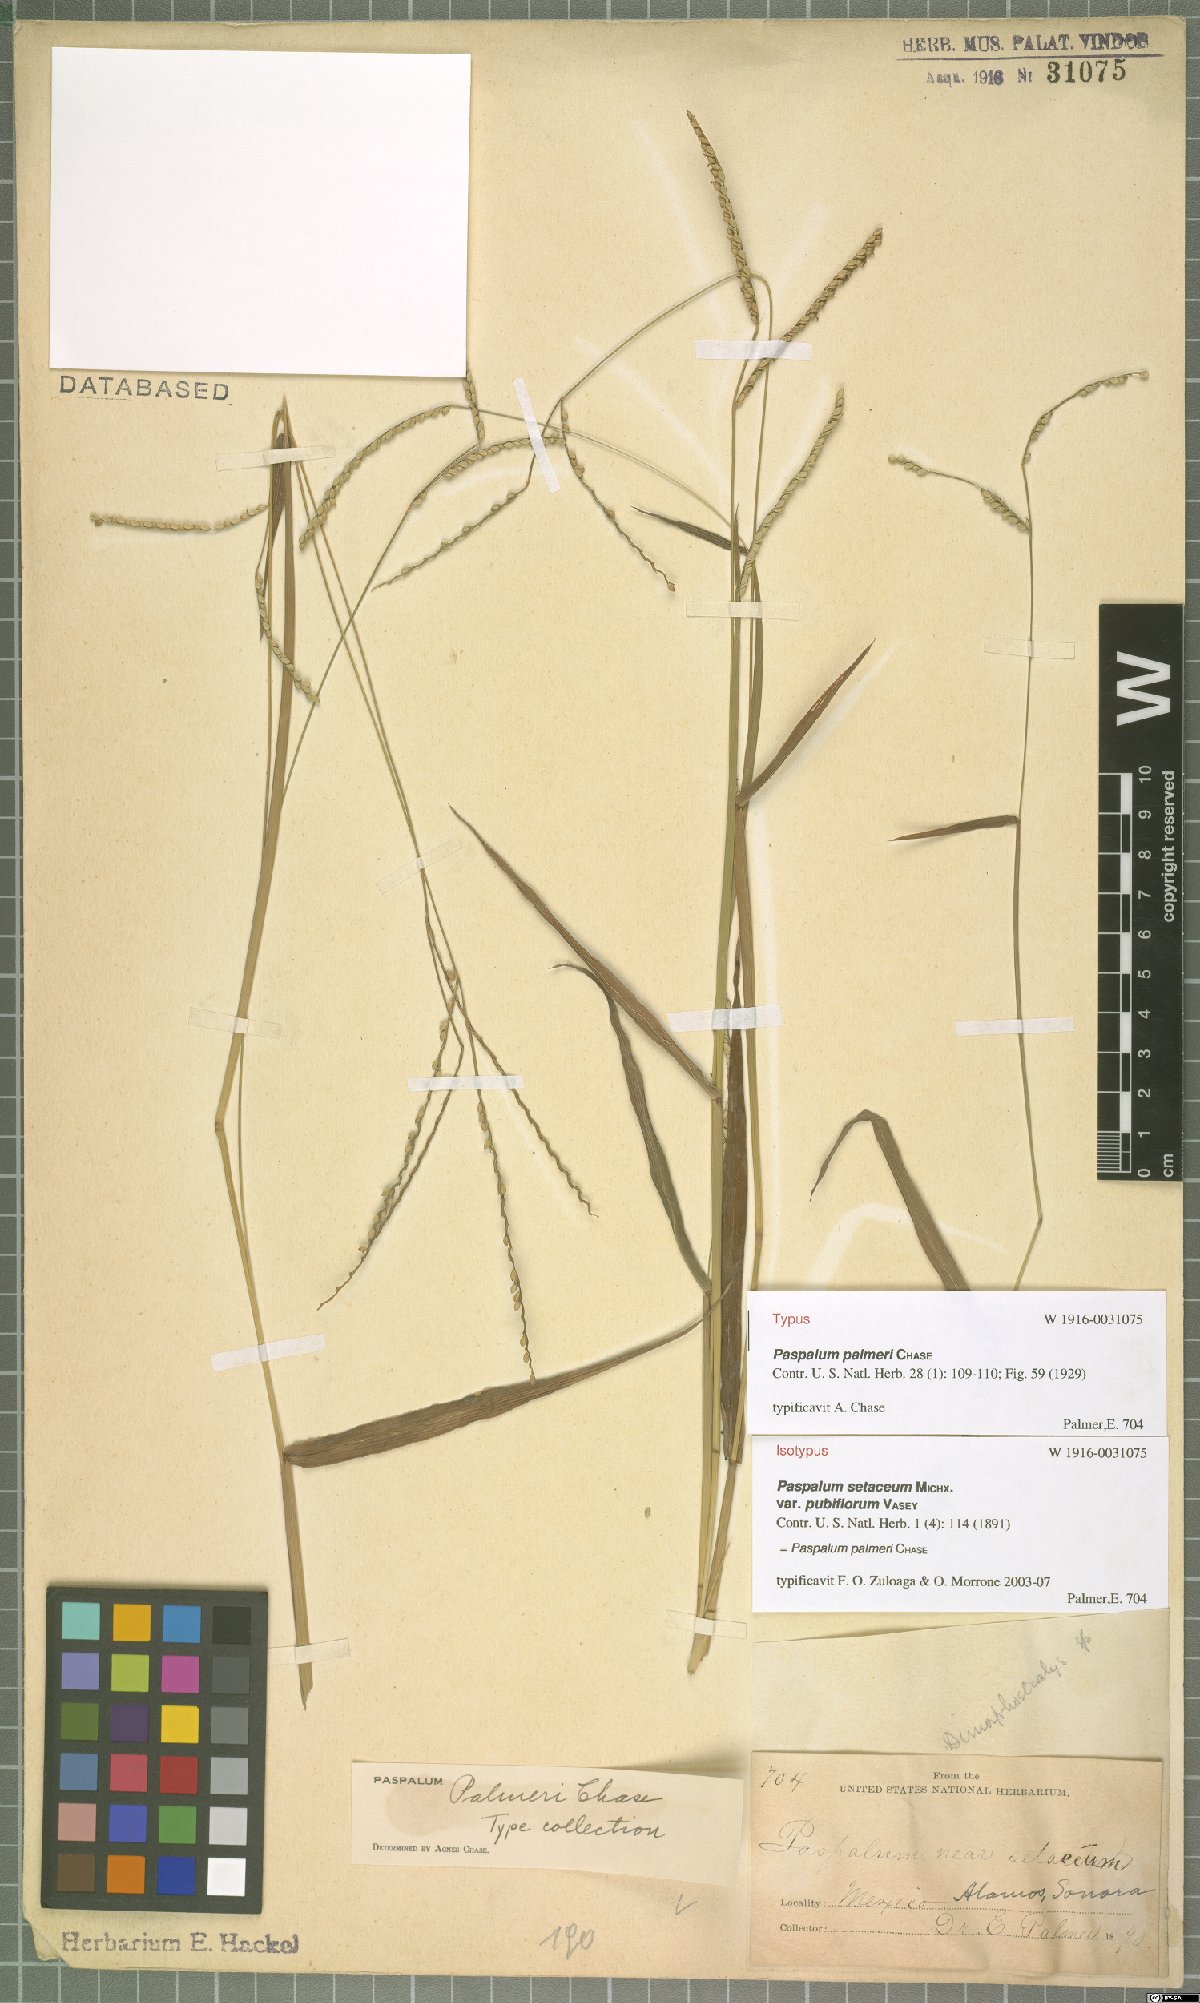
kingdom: Plantae
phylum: Tracheophyta
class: Liliopsida
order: Poales
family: Poaceae
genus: Paspalum
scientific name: Paspalum palmeri
